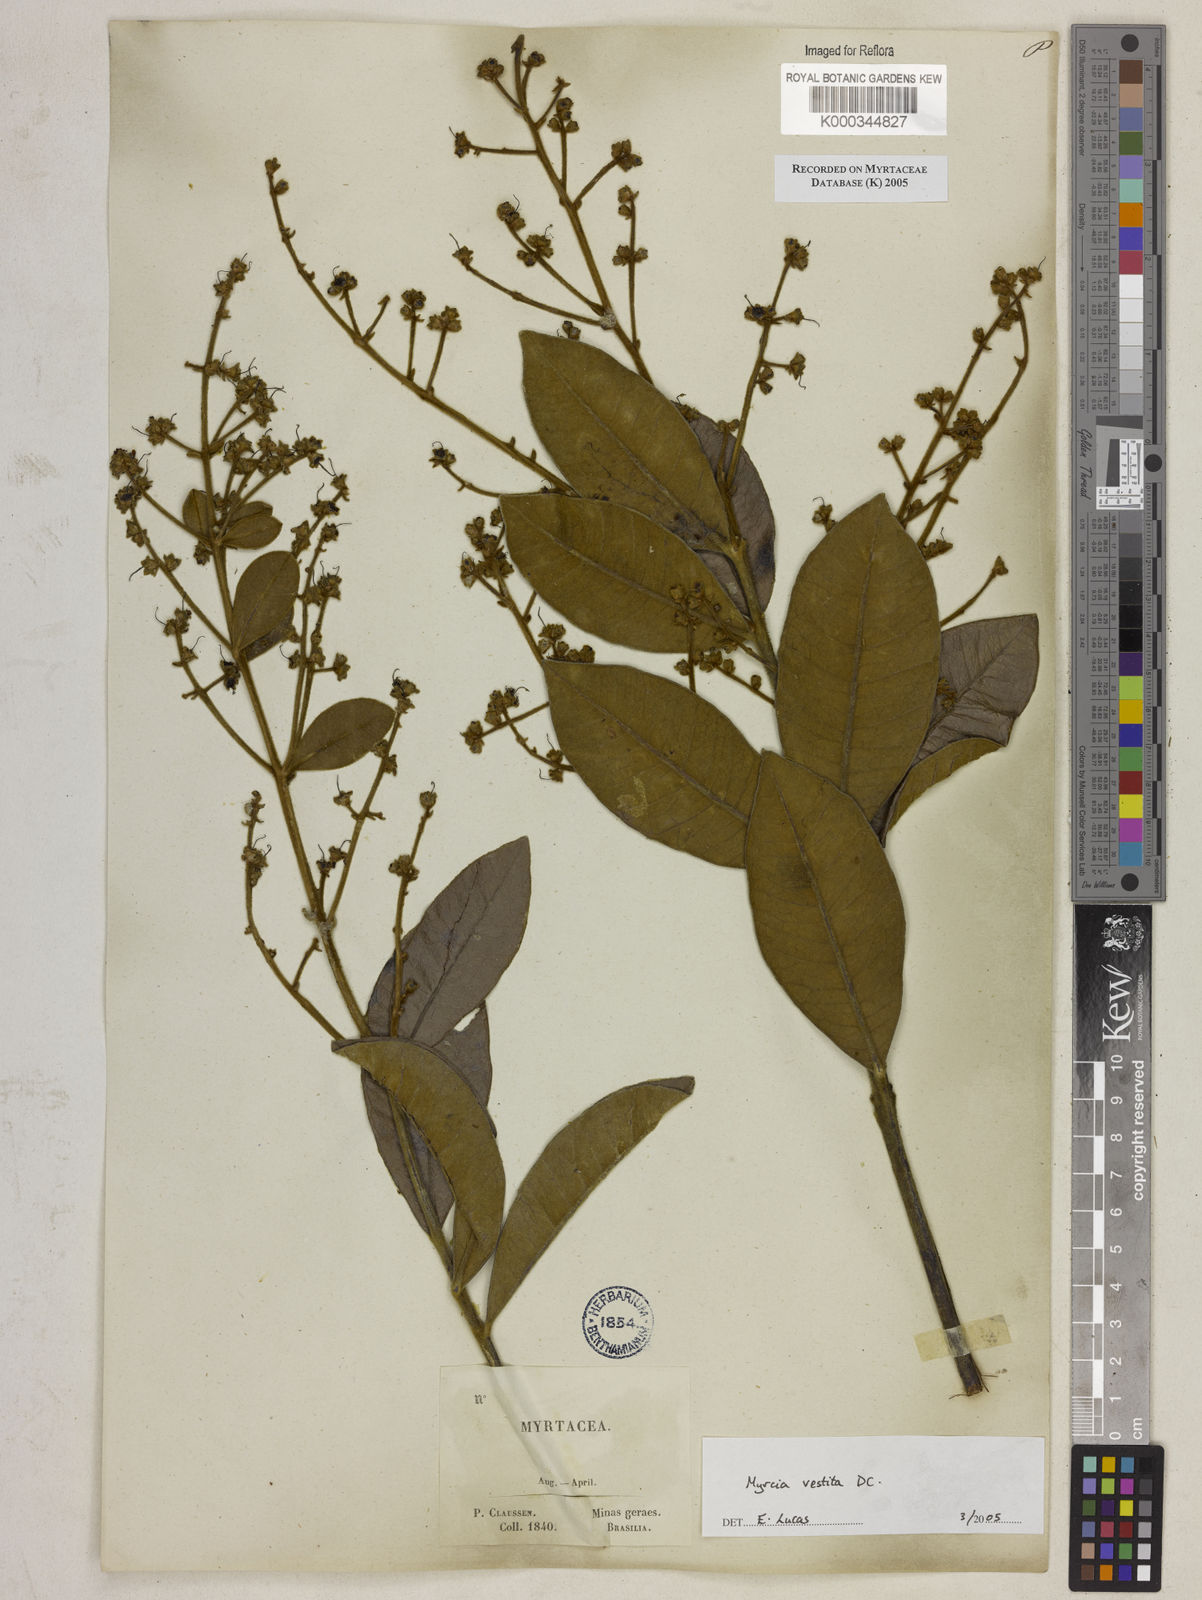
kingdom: Plantae
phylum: Tracheophyta
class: Magnoliopsida
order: Myrtales
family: Myrtaceae
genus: Myrcia
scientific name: Myrcia vestita
